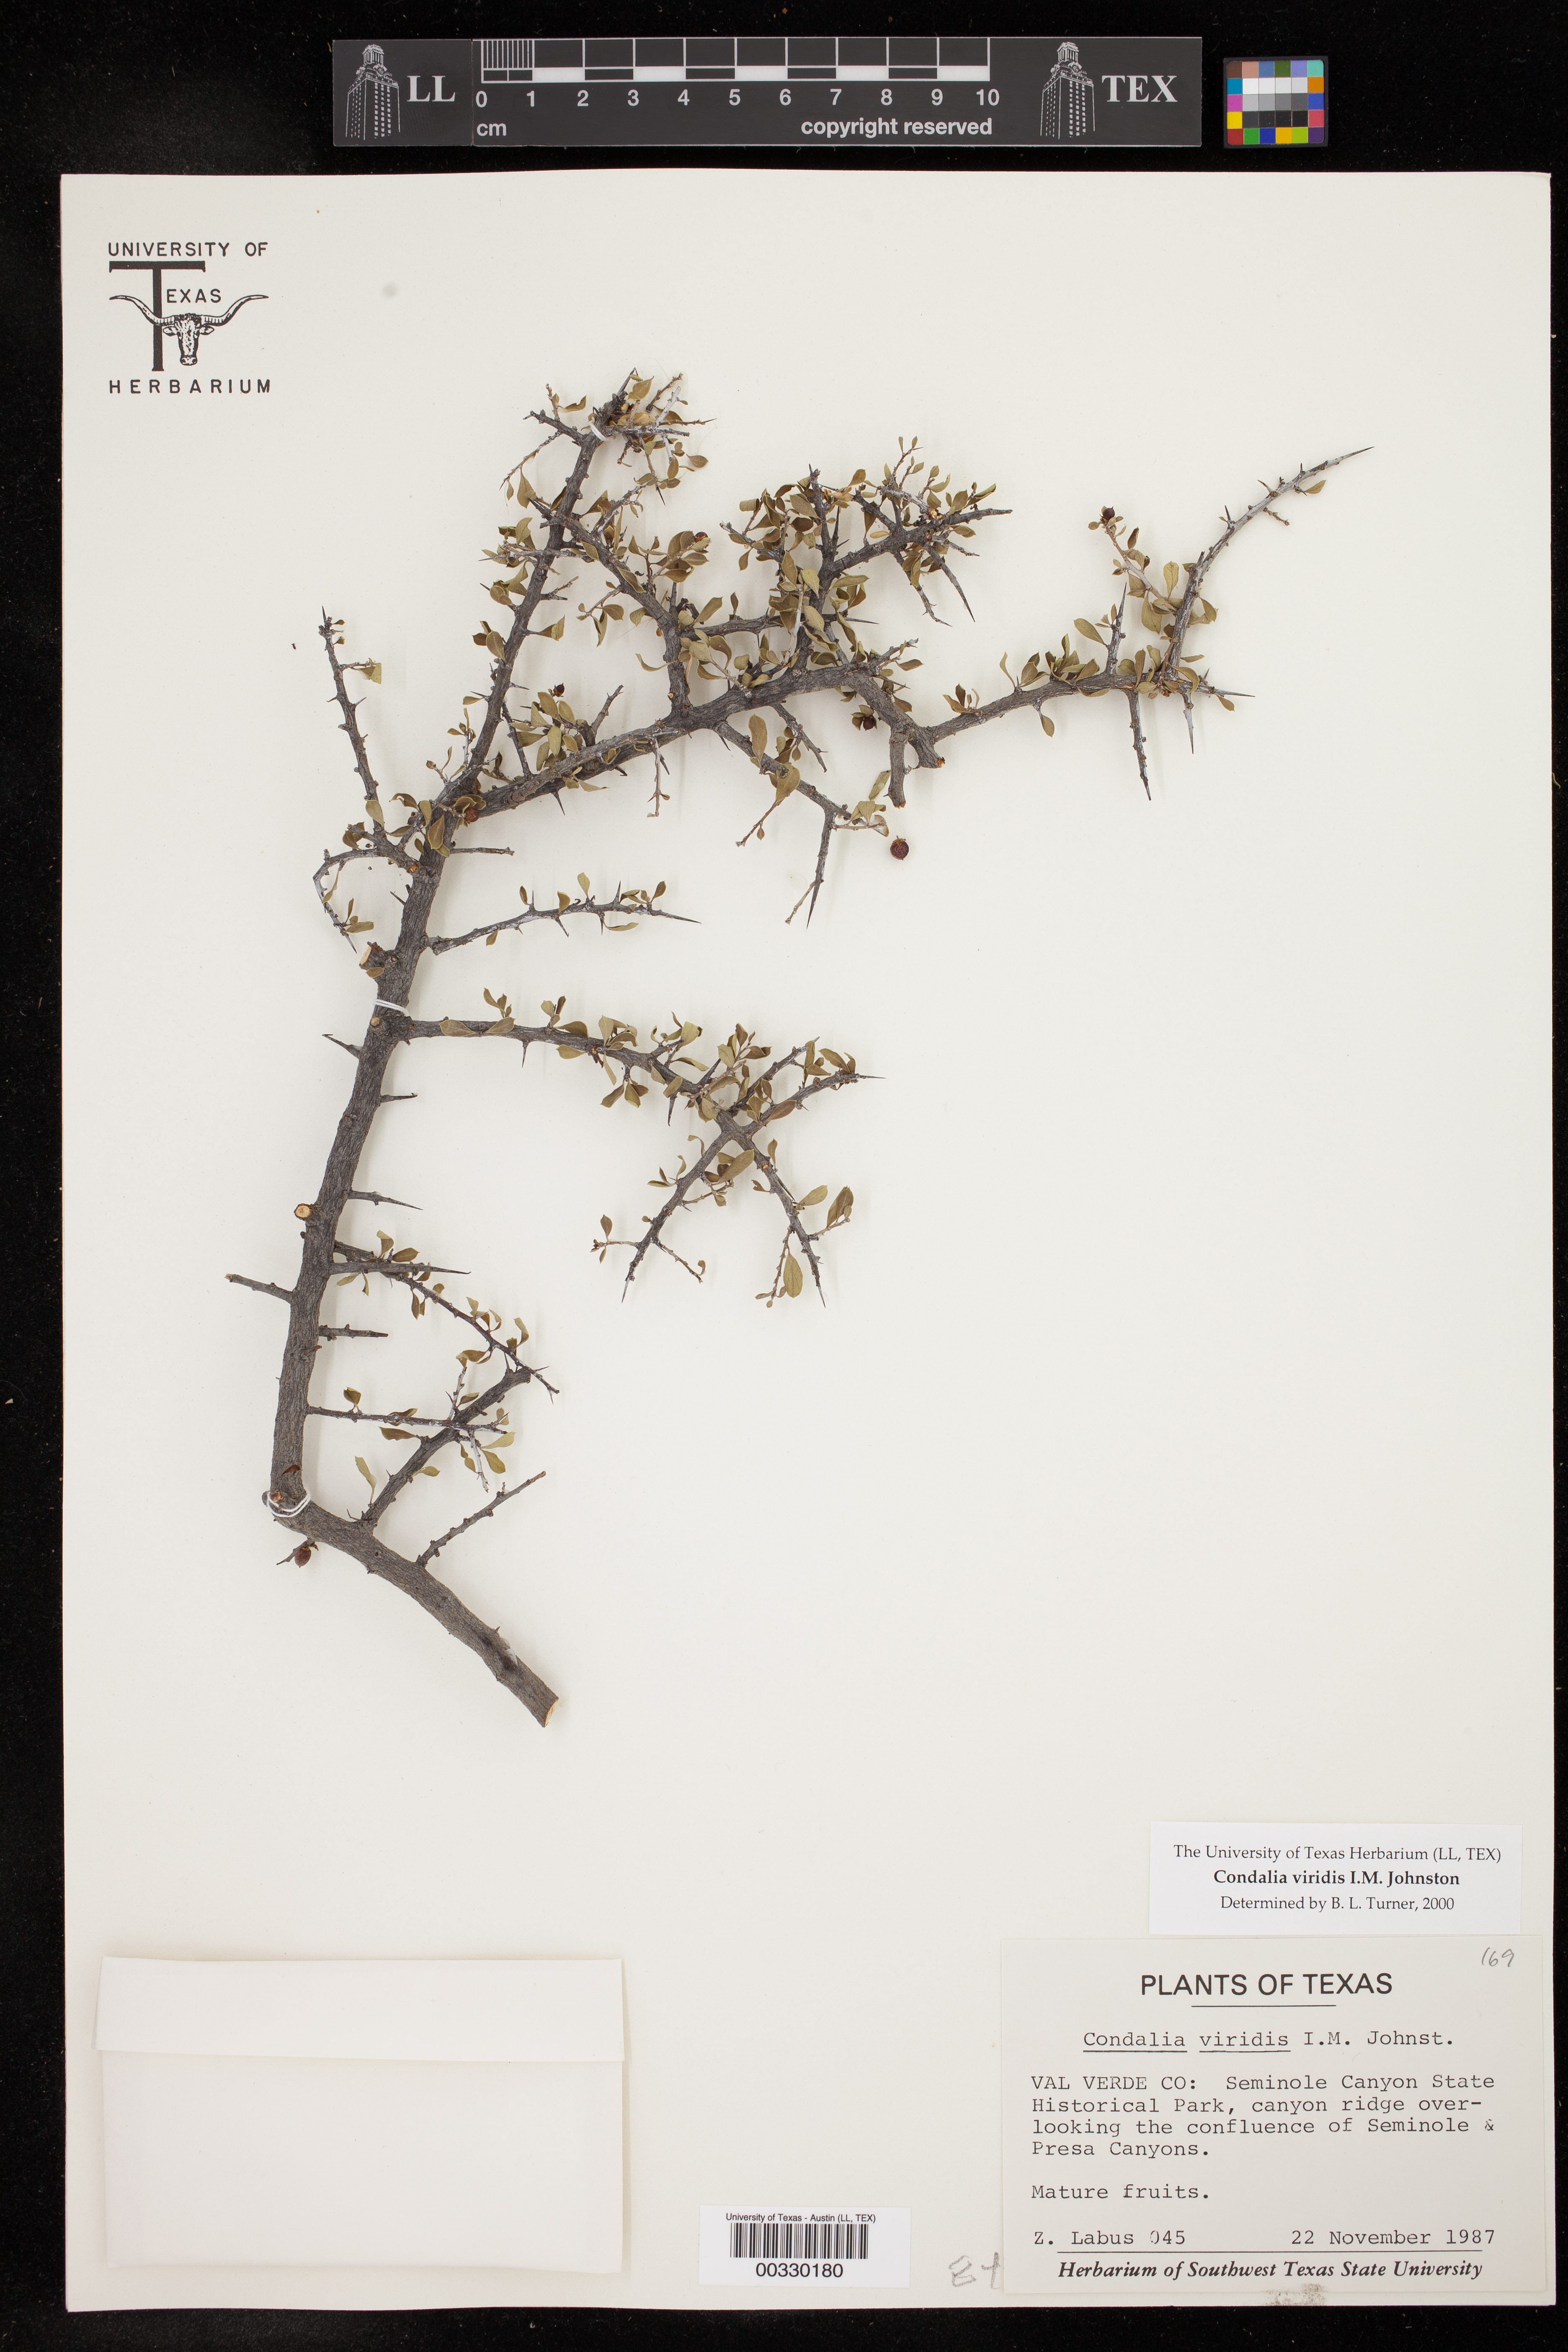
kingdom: Plantae
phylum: Tracheophyta
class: Magnoliopsida
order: Rosales
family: Rhamnaceae
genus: Condalia
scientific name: Condalia viridis
